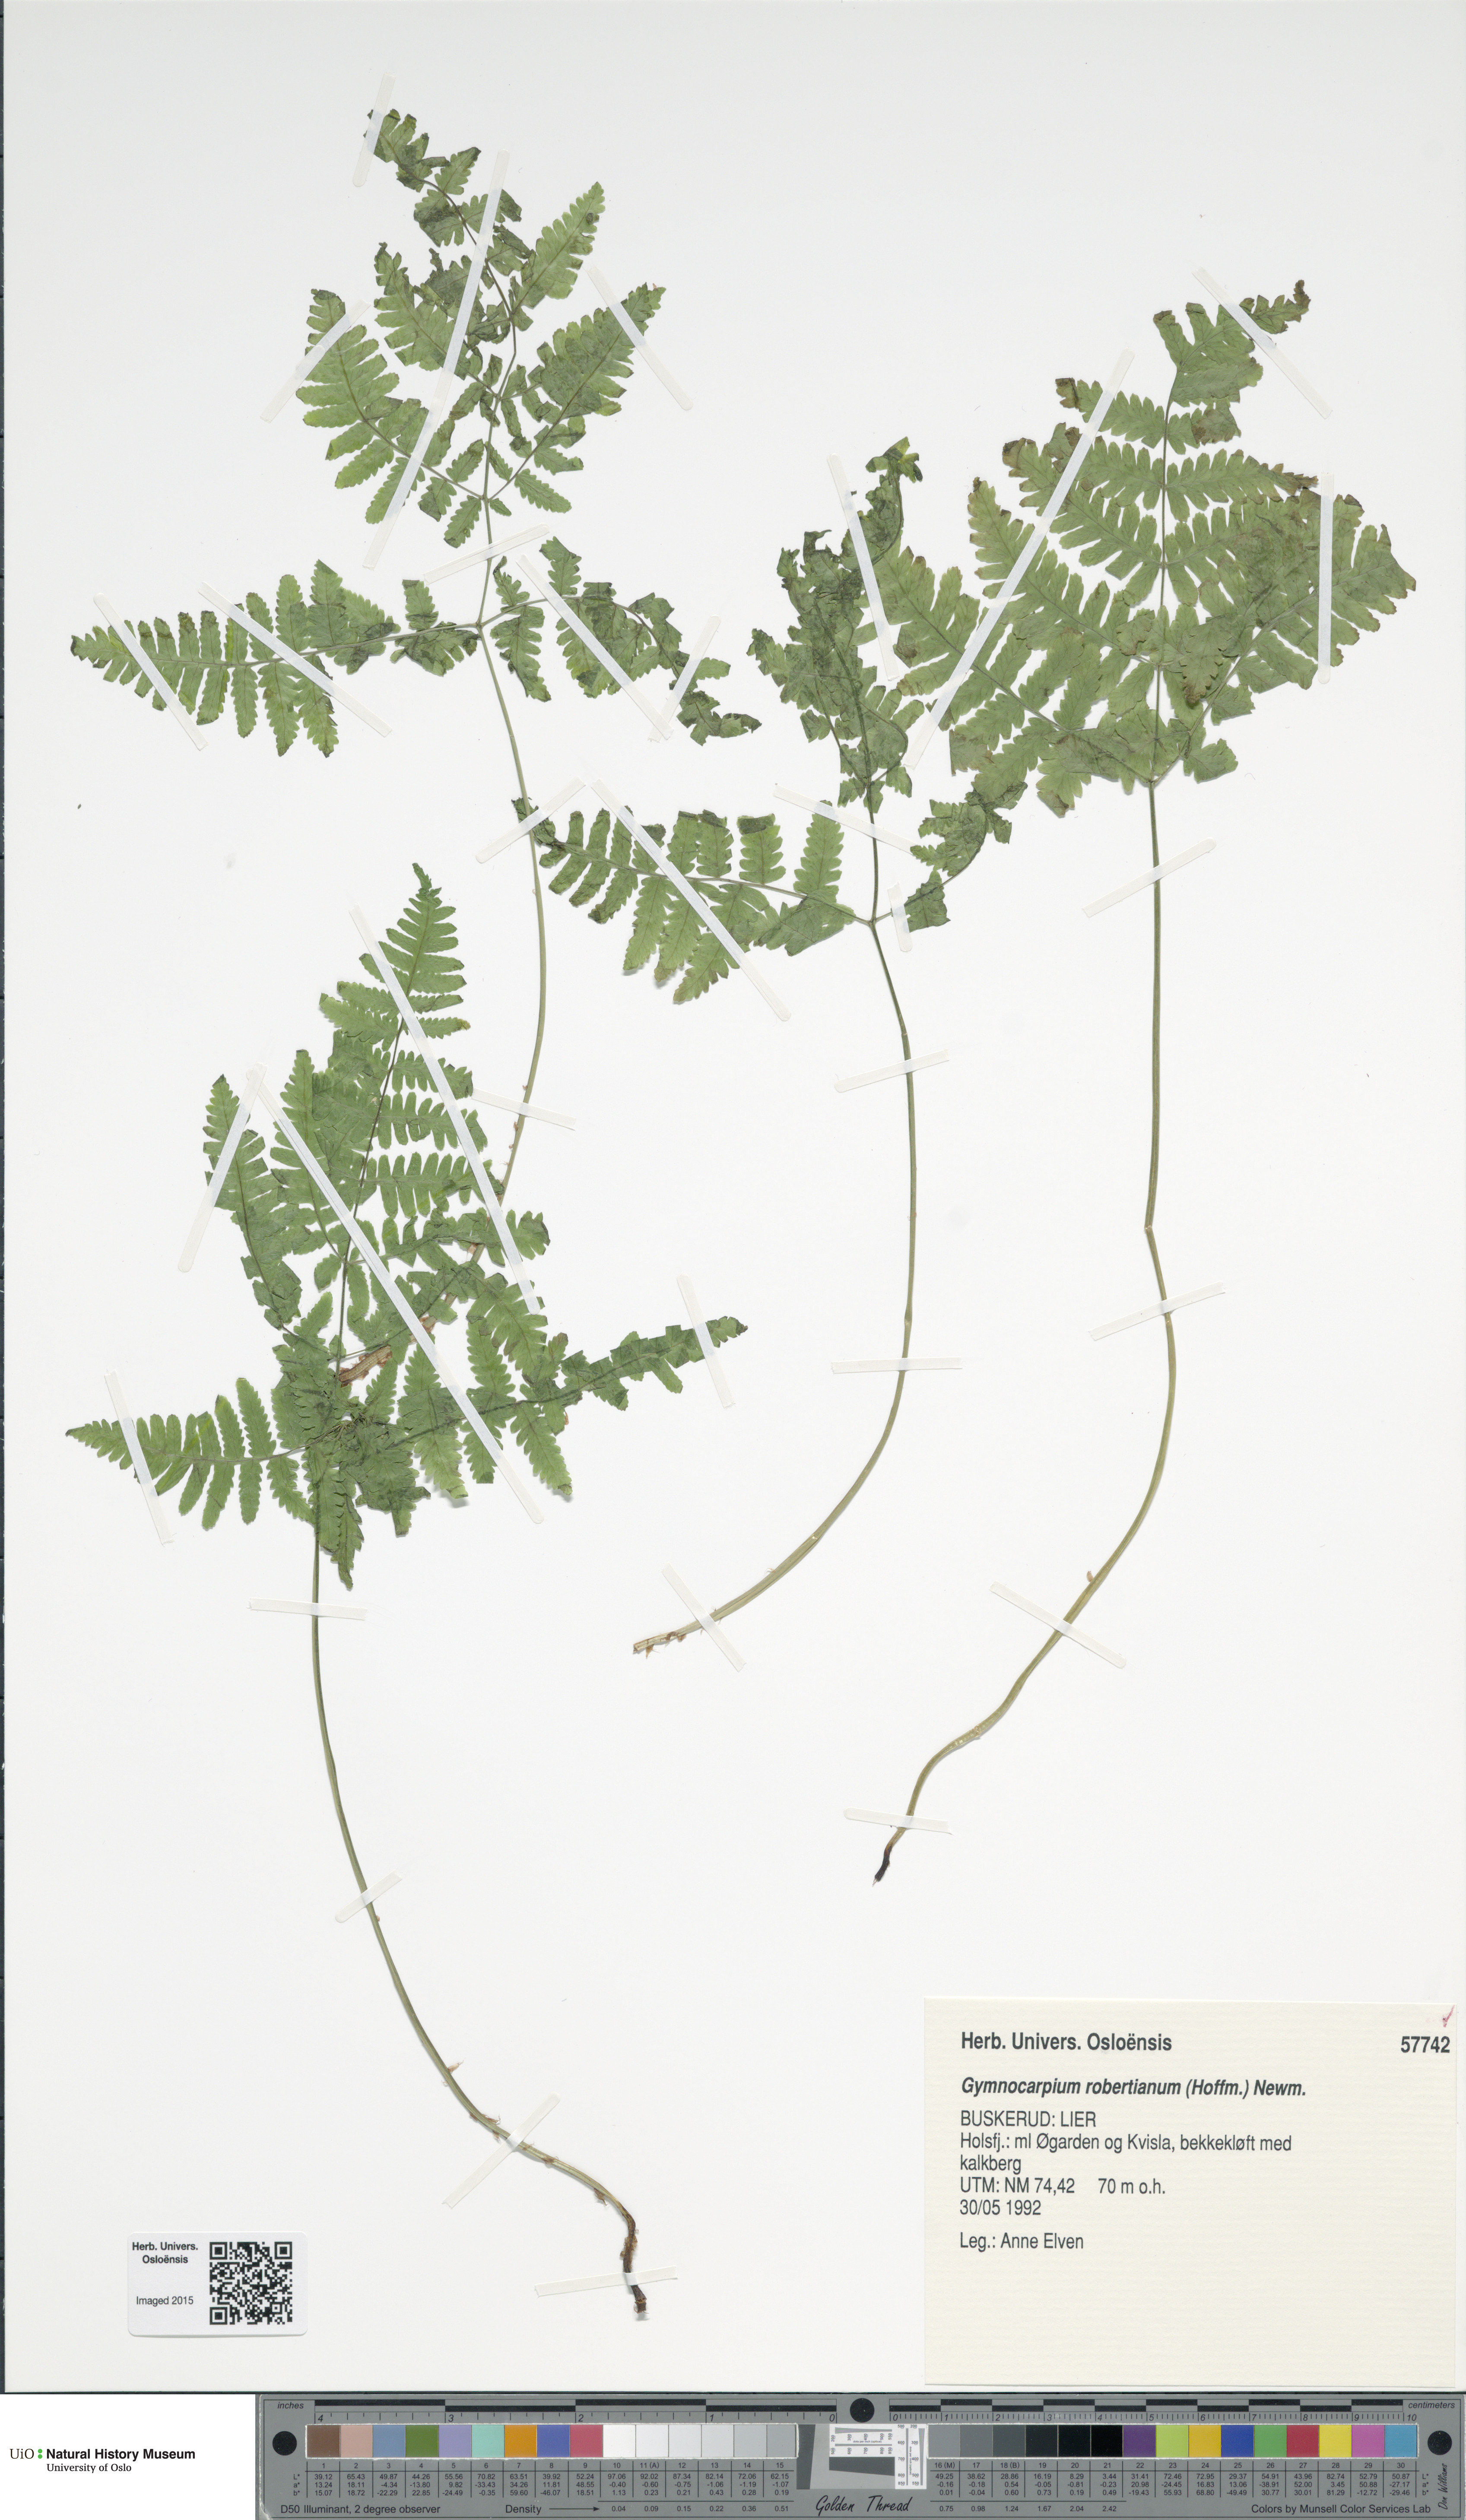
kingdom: Plantae
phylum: Tracheophyta
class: Polypodiopsida
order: Polypodiales
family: Cystopteridaceae
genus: Gymnocarpium
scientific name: Gymnocarpium robertianum
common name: Limestone fern
